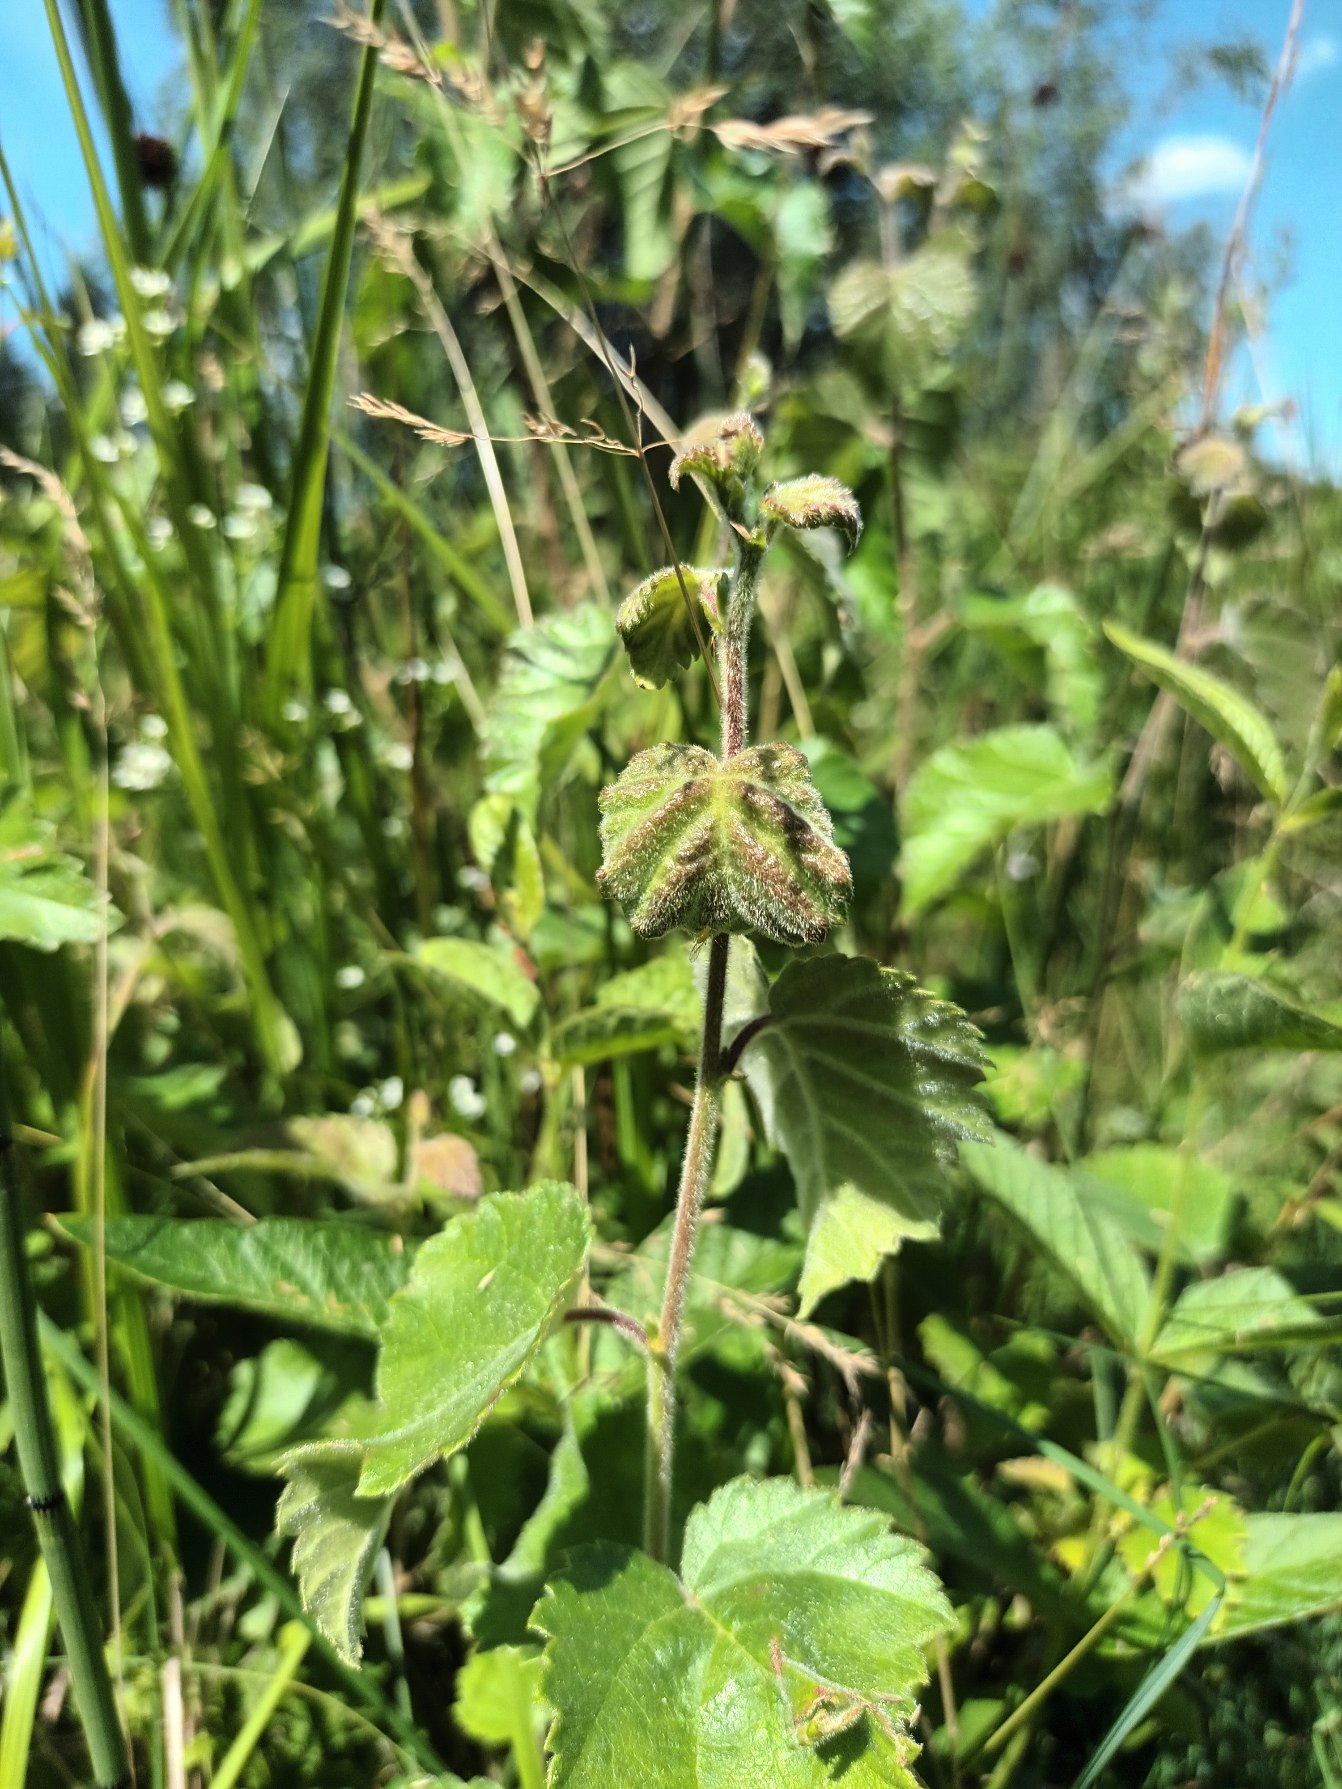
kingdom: Plantae
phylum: Tracheophyta
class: Magnoliopsida
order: Fagales
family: Betulaceae
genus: Betula
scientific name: Betula pubescens
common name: Dun-birk
